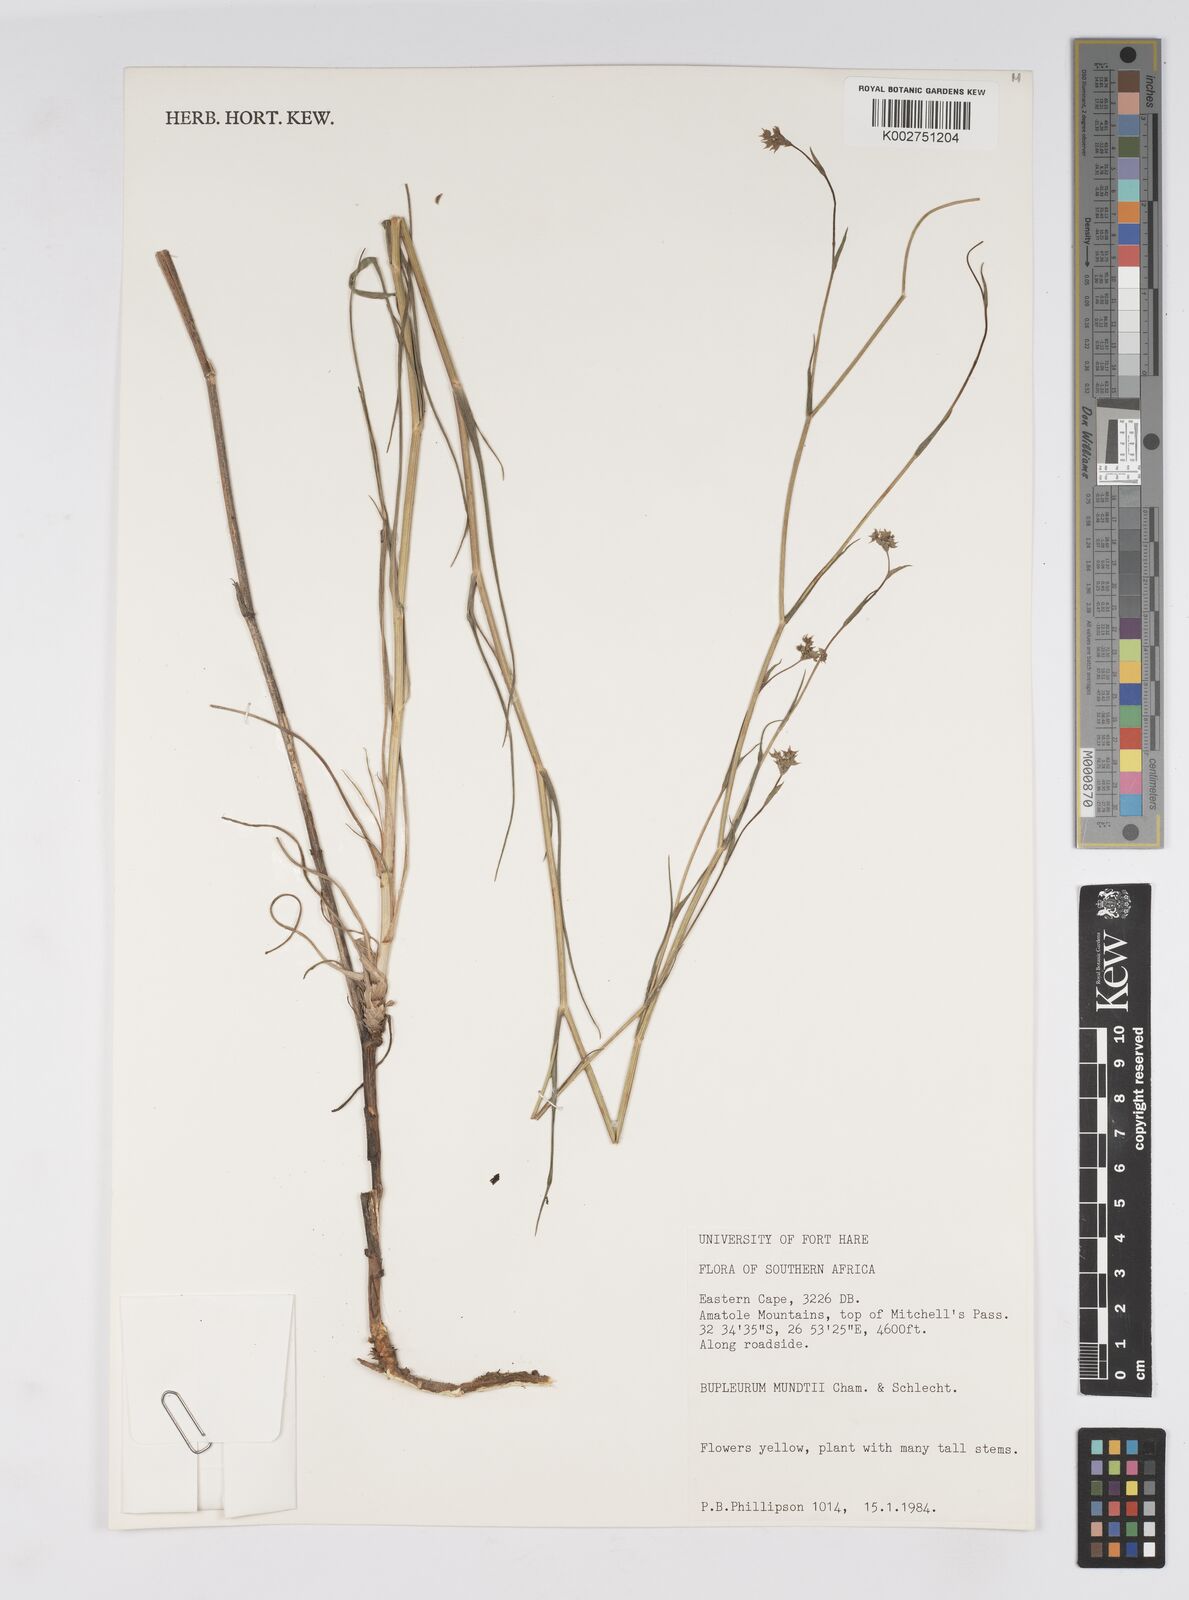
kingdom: Plantae
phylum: Tracheophyta
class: Magnoliopsida
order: Apiales
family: Apiaceae
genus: Bupleurum
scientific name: Bupleurum mundii
